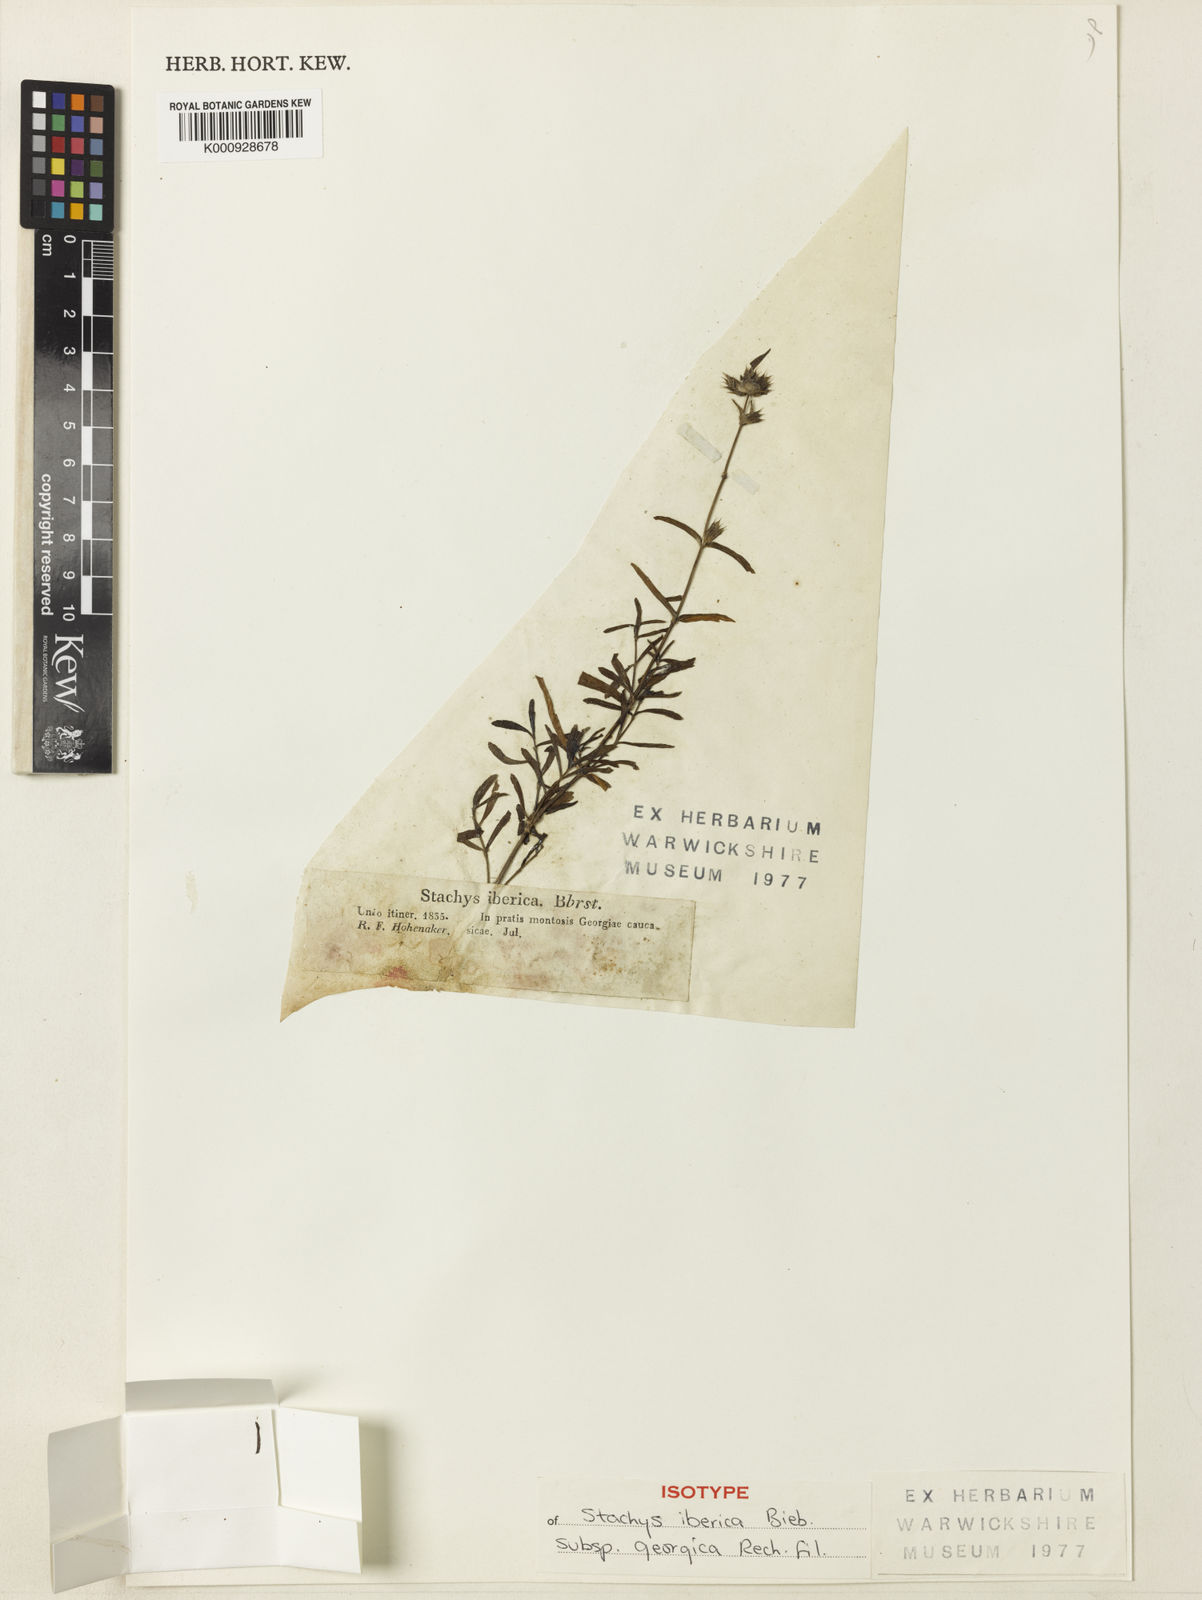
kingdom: Plantae
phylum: Tracheophyta
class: Magnoliopsida
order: Lamiales
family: Lamiaceae
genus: Stachys
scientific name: Stachys iberica
